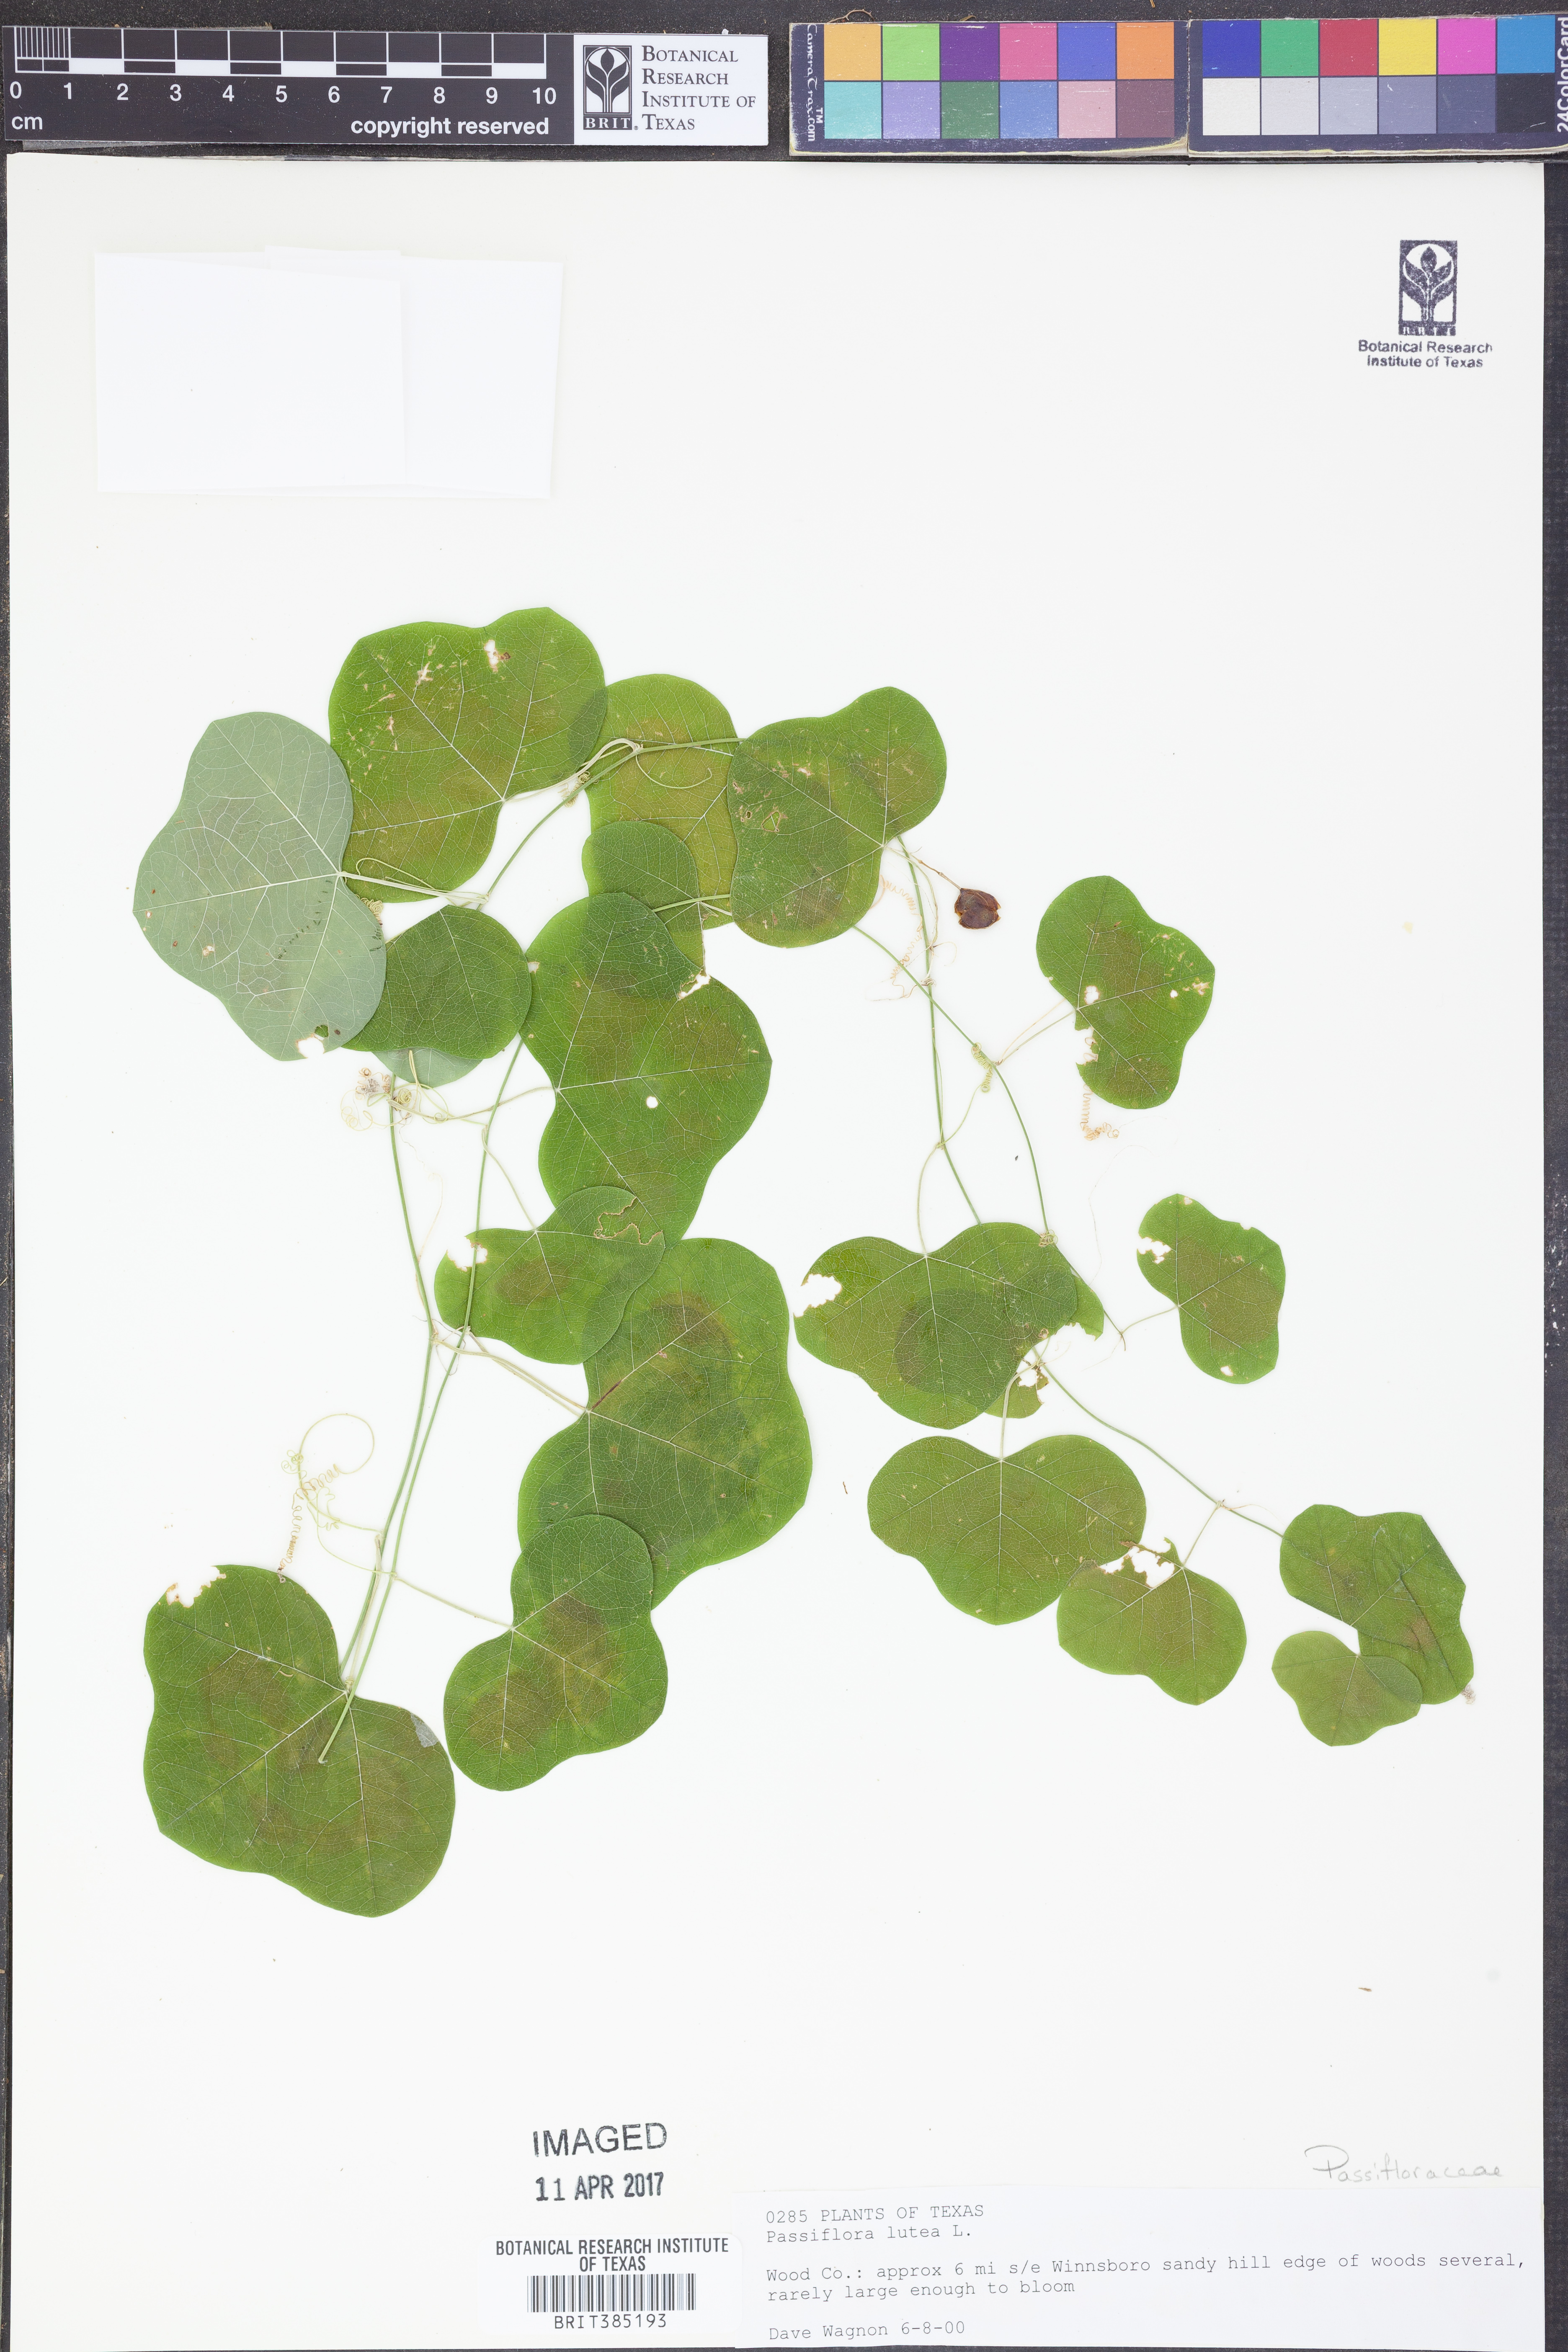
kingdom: Plantae
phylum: Tracheophyta
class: Magnoliopsida
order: Malpighiales
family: Passifloraceae
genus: Passiflora
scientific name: Passiflora lutea
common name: Yellow passionflower
